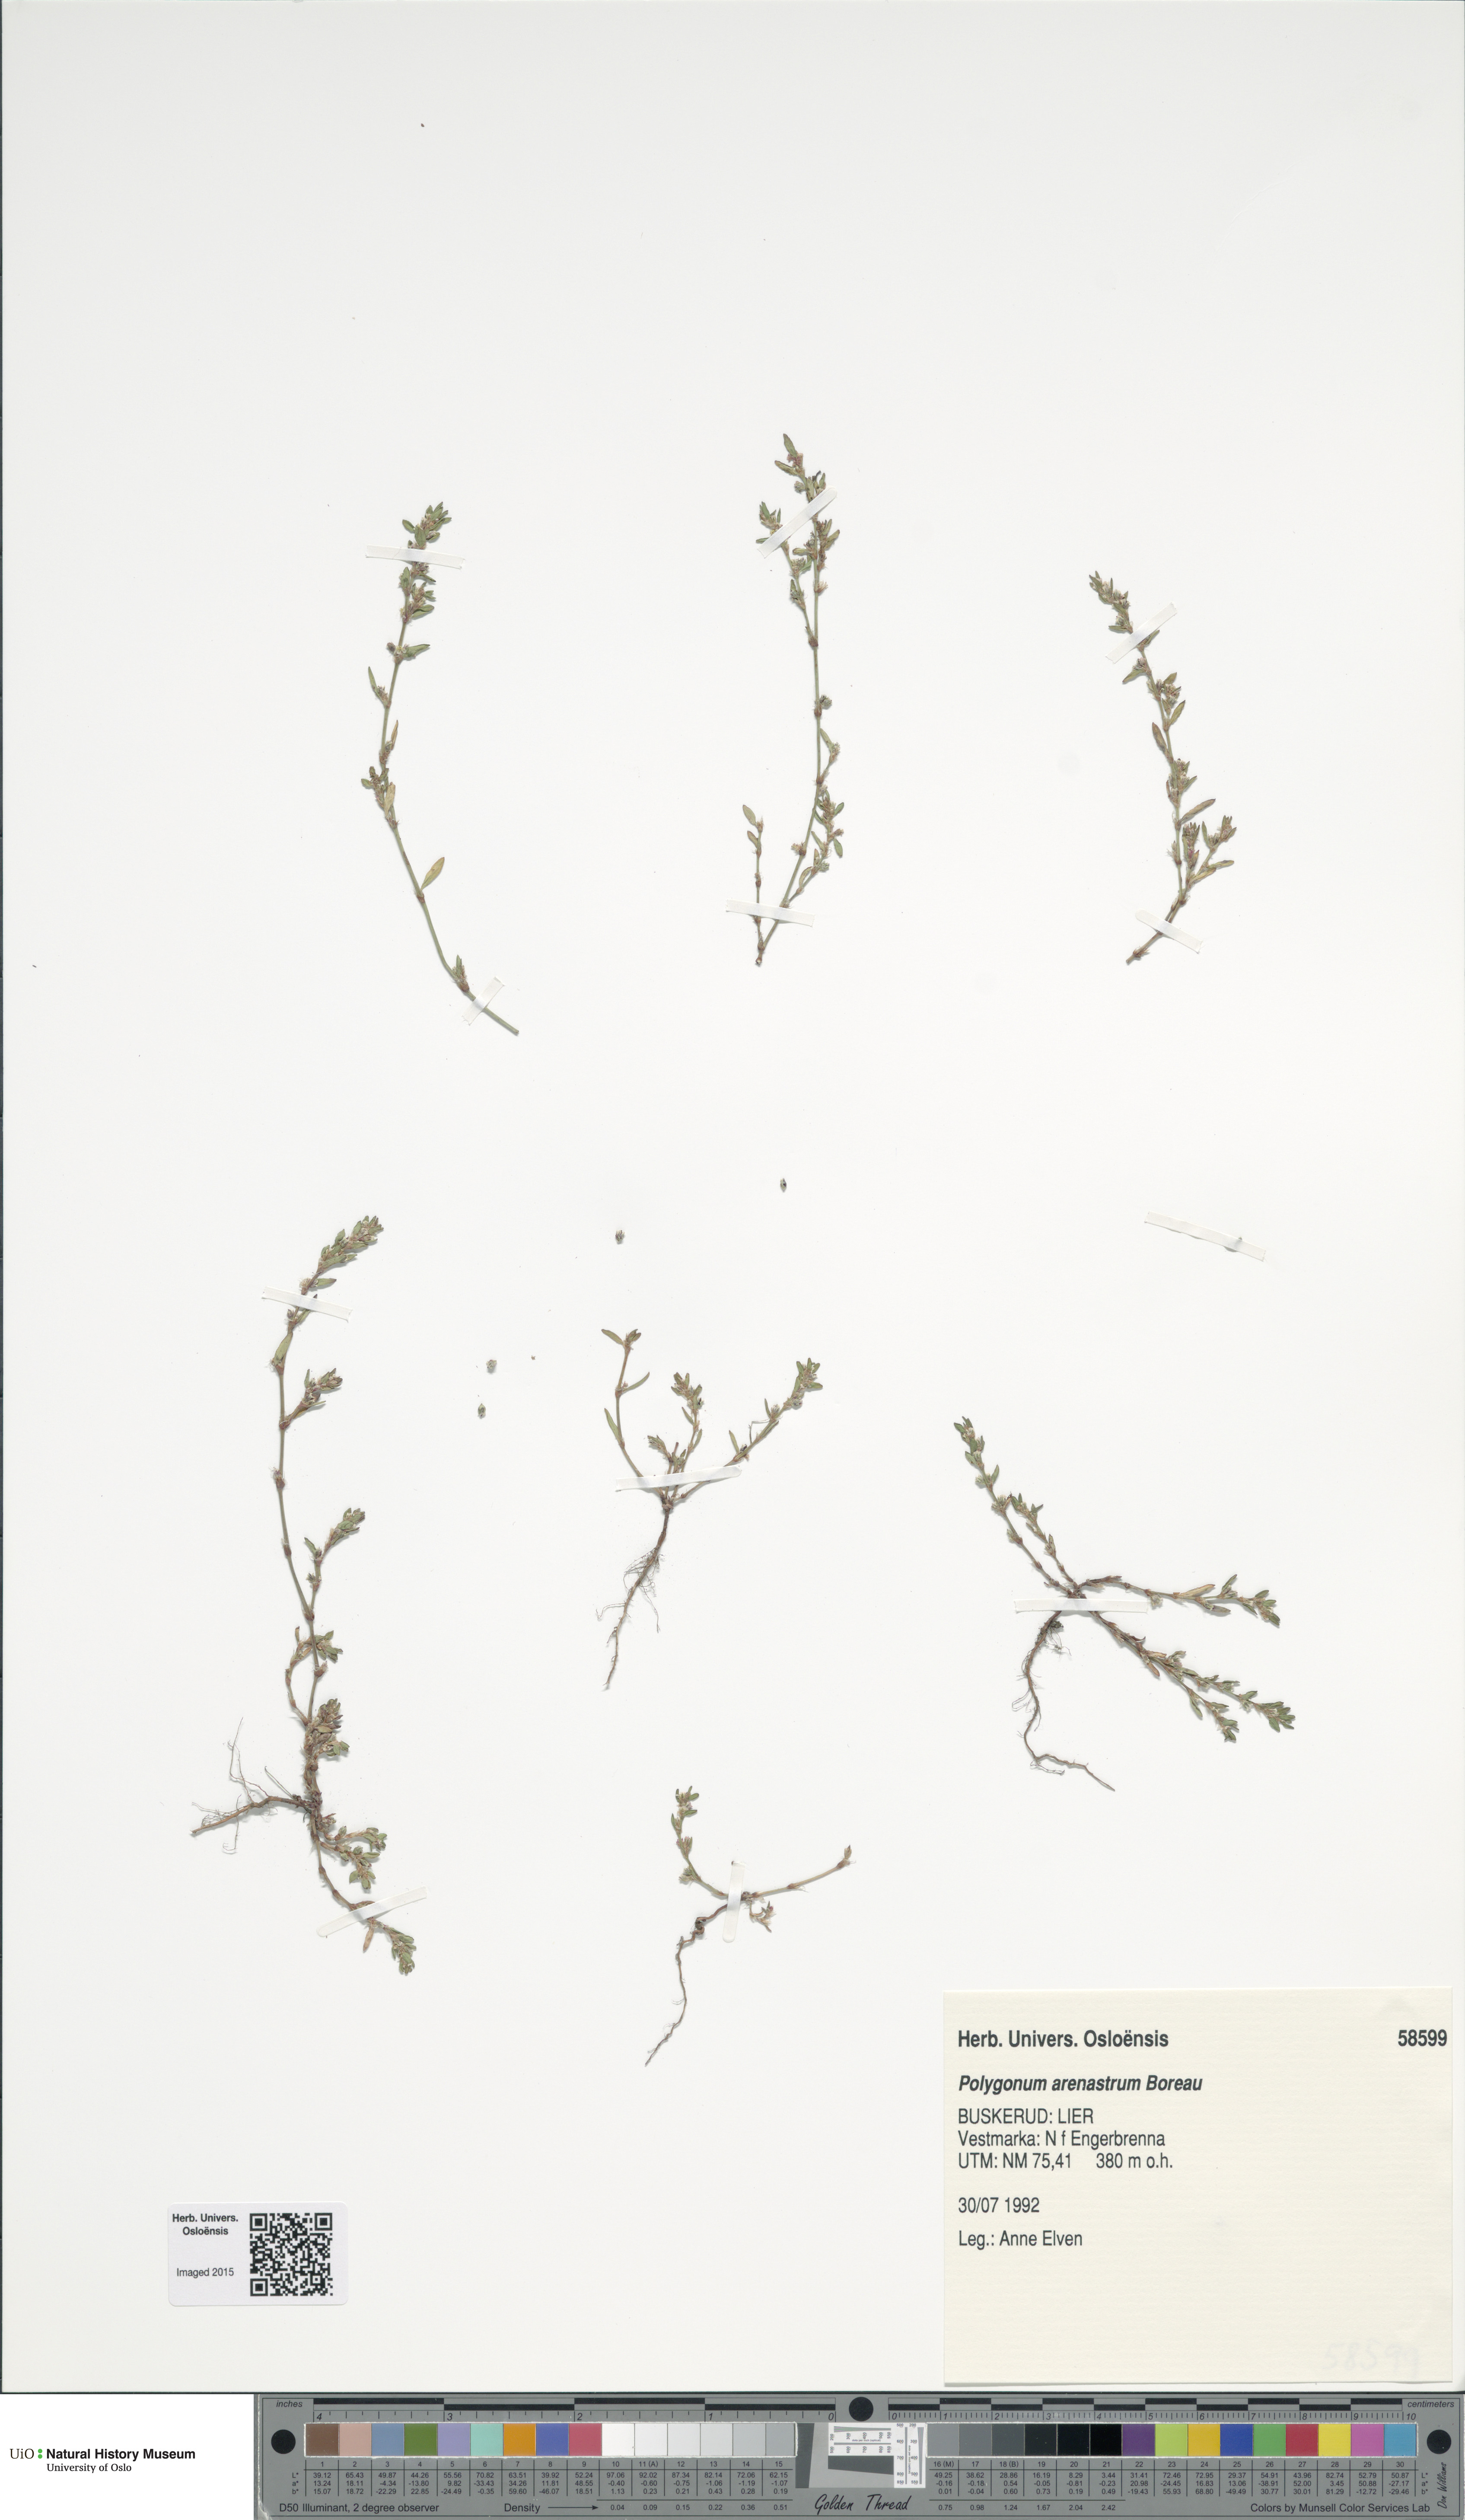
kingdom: Plantae
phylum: Tracheophyta
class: Magnoliopsida
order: Caryophyllales
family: Polygonaceae
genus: Polygonum
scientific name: Polygonum arenastrum
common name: Equal-leaved knotgrass
